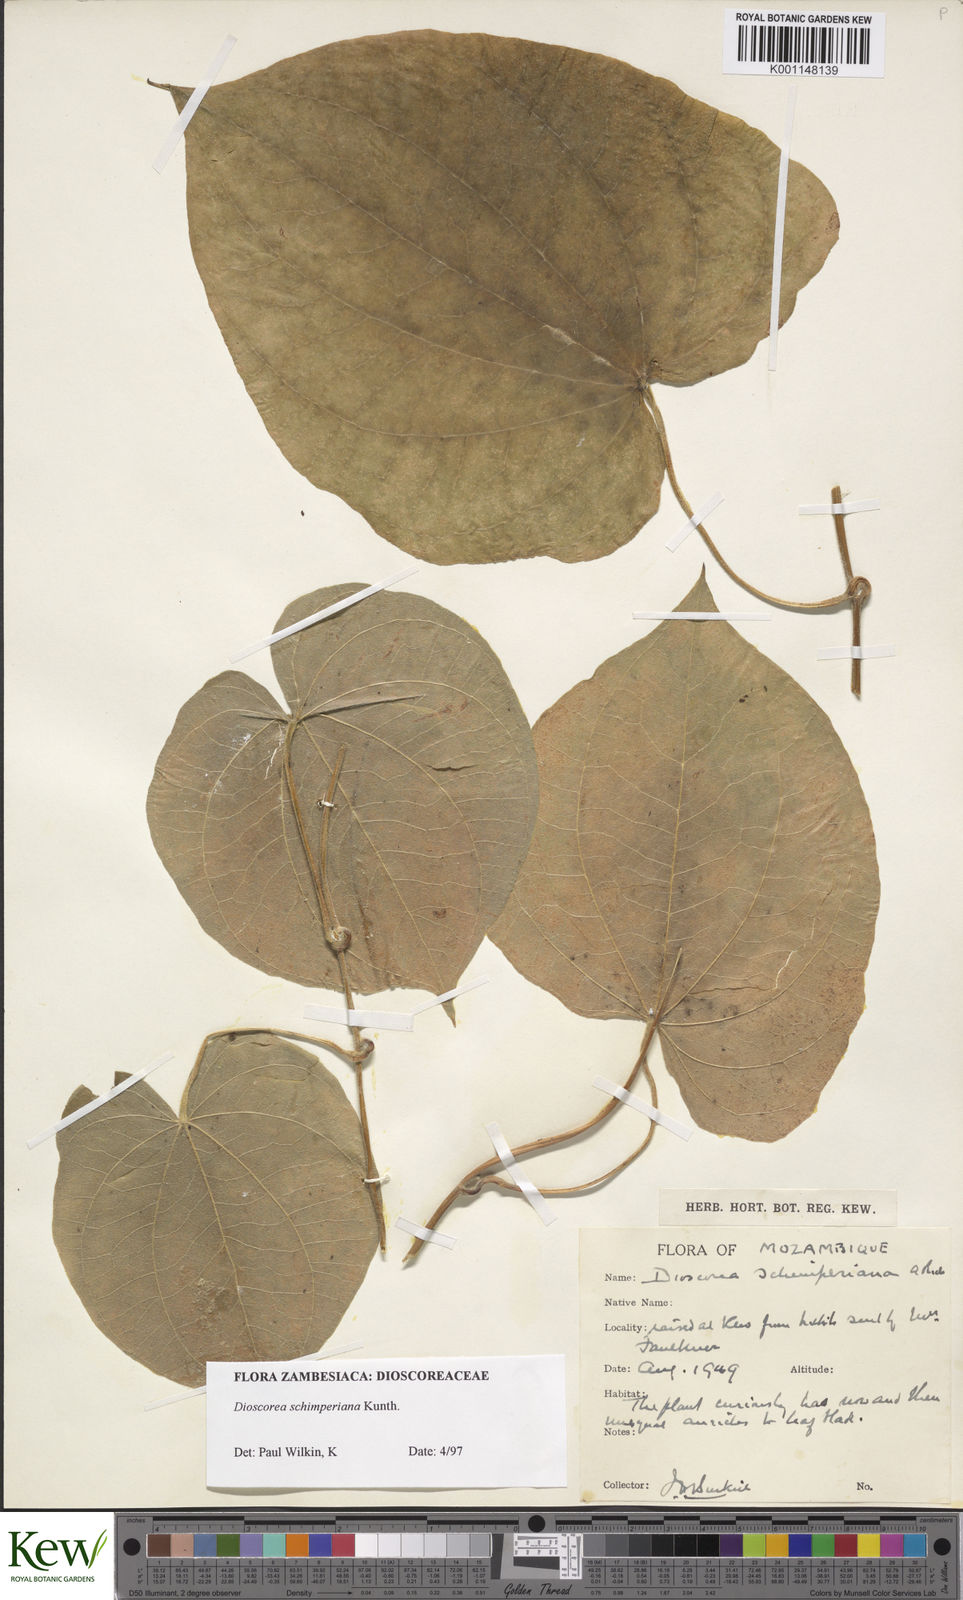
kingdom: Plantae
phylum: Tracheophyta
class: Liliopsida
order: Dioscoreales
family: Dioscoreaceae
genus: Dioscorea
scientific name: Dioscorea schimperiana
